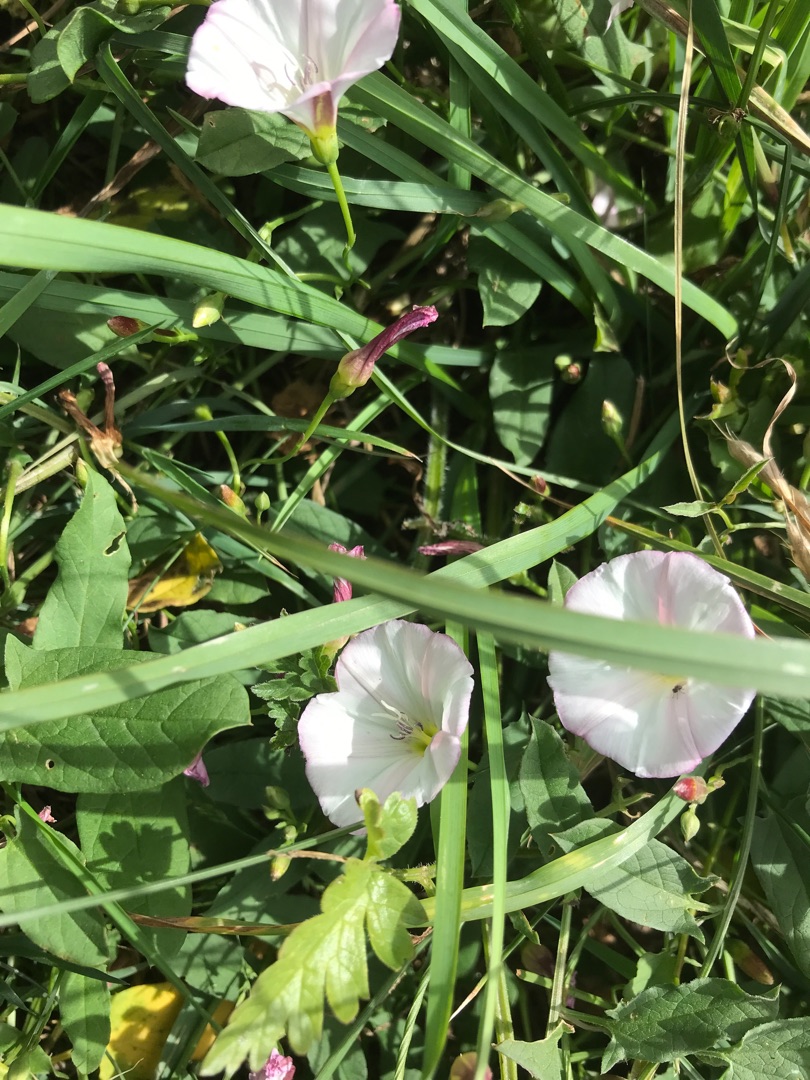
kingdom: Plantae
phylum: Tracheophyta
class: Magnoliopsida
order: Solanales
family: Convolvulaceae
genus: Convolvulus
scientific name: Convolvulus arvensis
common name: Ager-snerle
